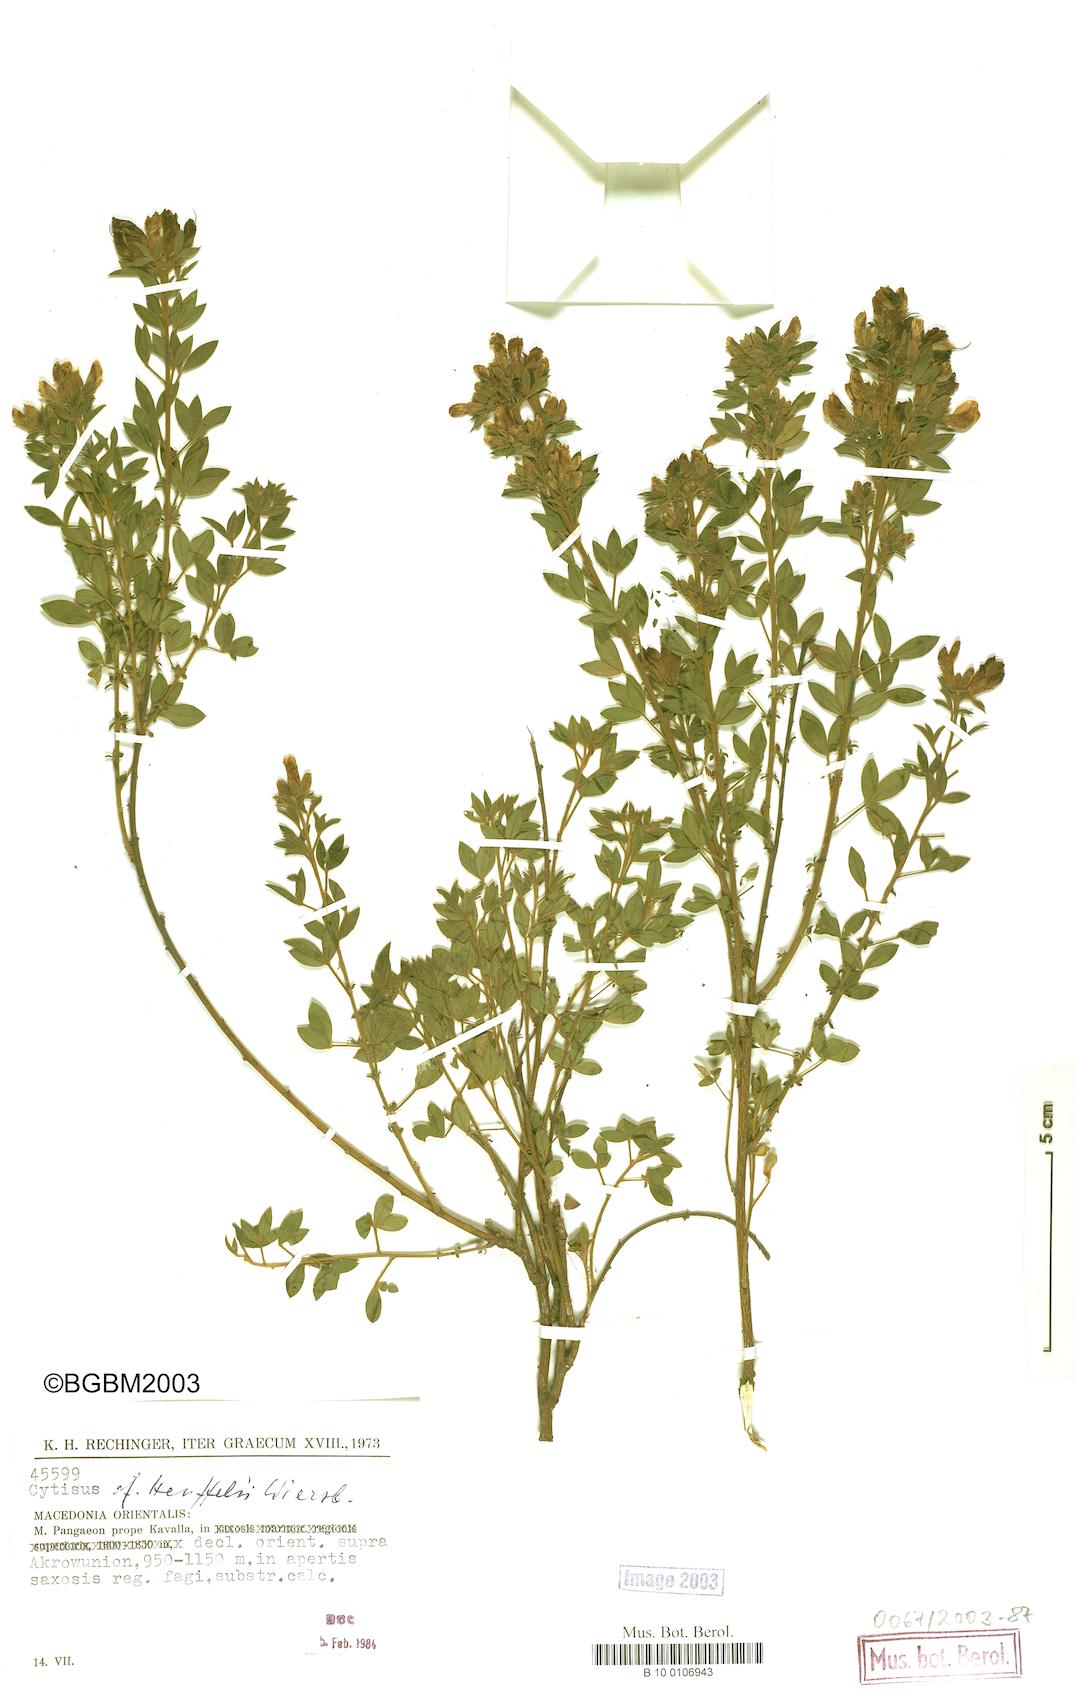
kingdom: Plantae
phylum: Tracheophyta
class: Magnoliopsida
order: Fabales
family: Fabaceae
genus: Chamaecytisus
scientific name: Chamaecytisus heuffelii
